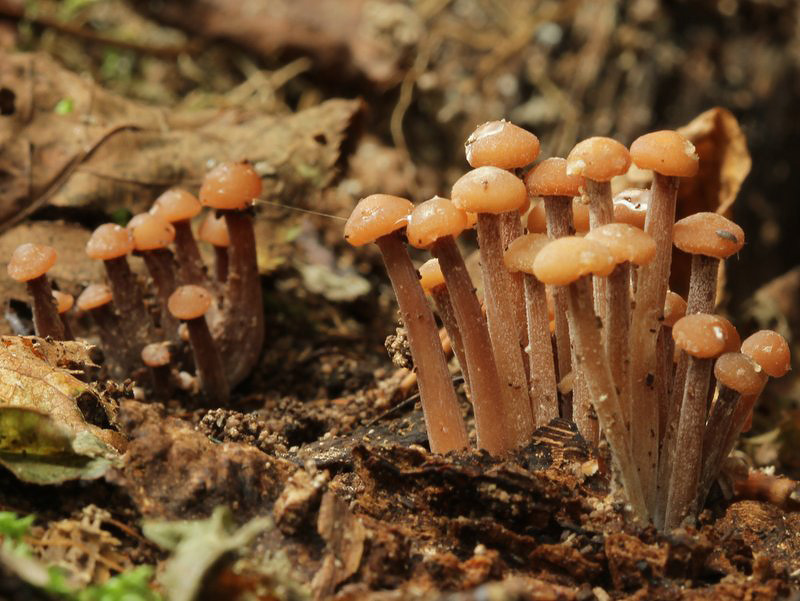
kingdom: Fungi
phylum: Basidiomycota
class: Agaricomycetes
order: Agaricales
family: Omphalotaceae
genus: Collybiopsis
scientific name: Collybiopsis confluens
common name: knippe-fladhat
